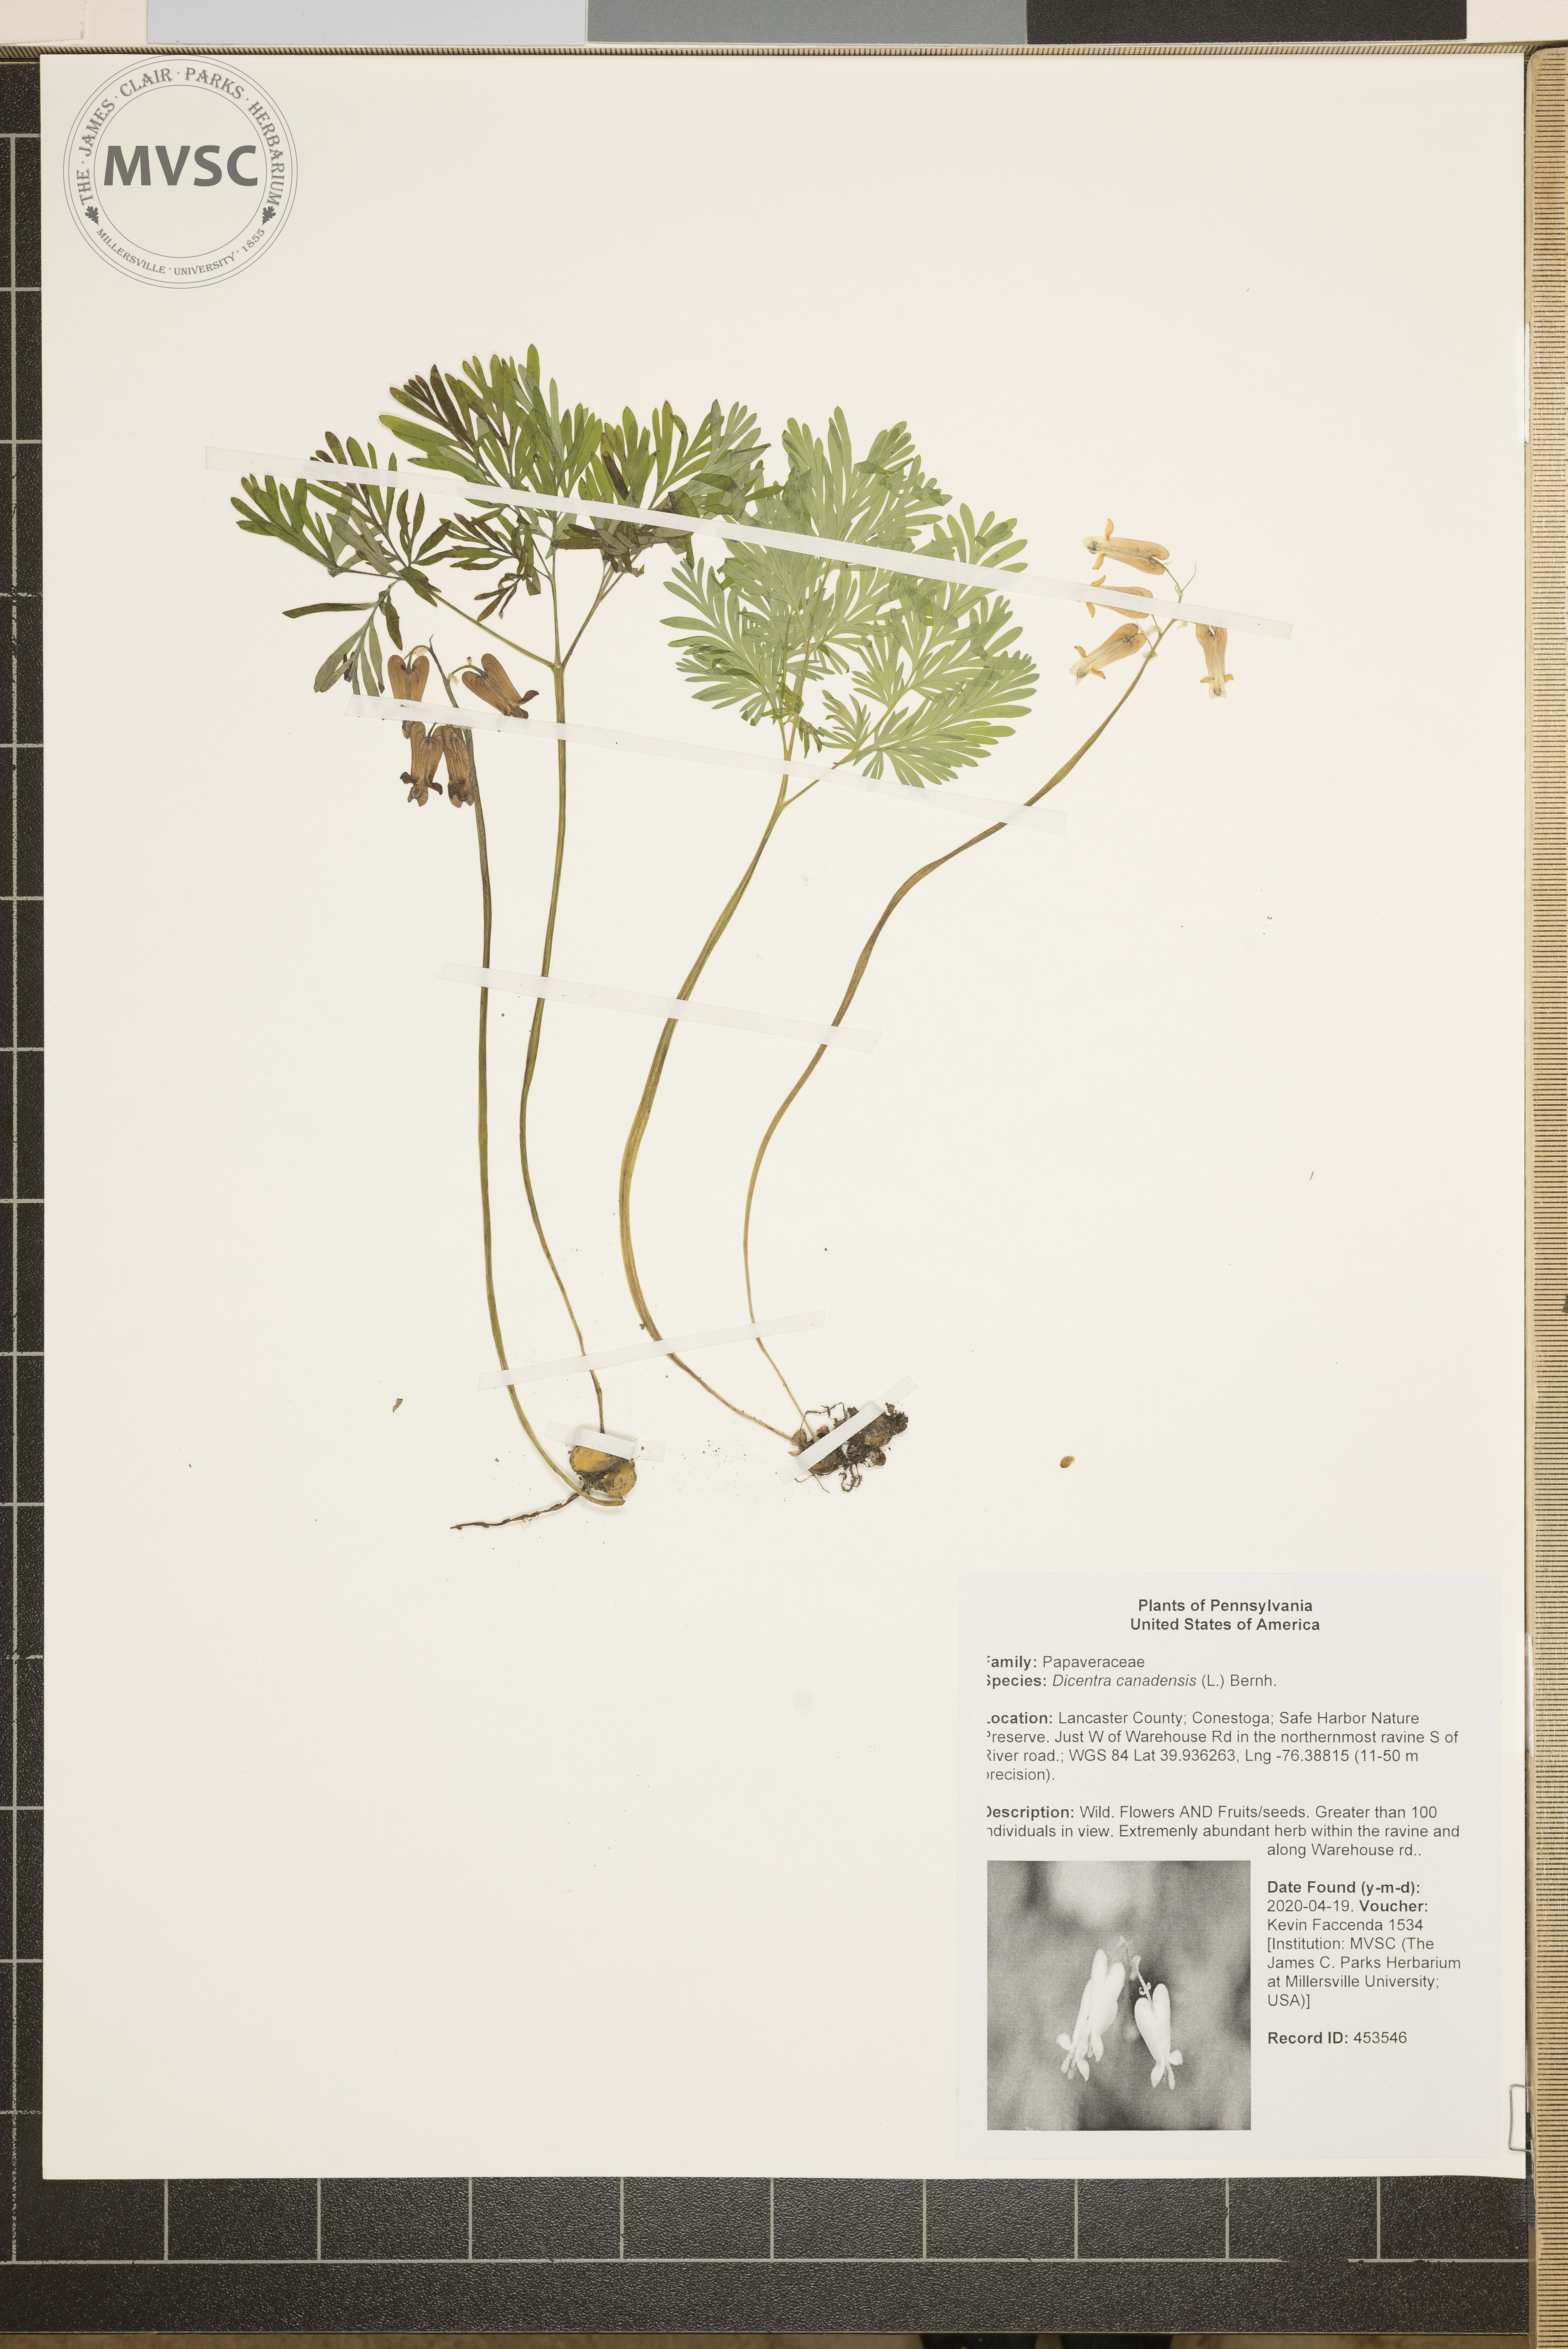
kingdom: Plantae
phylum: Tracheophyta
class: Magnoliopsida
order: Ranunculales
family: Papaveraceae
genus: Dicentra
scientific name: Dicentra canadensis
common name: Squirrel-corn
